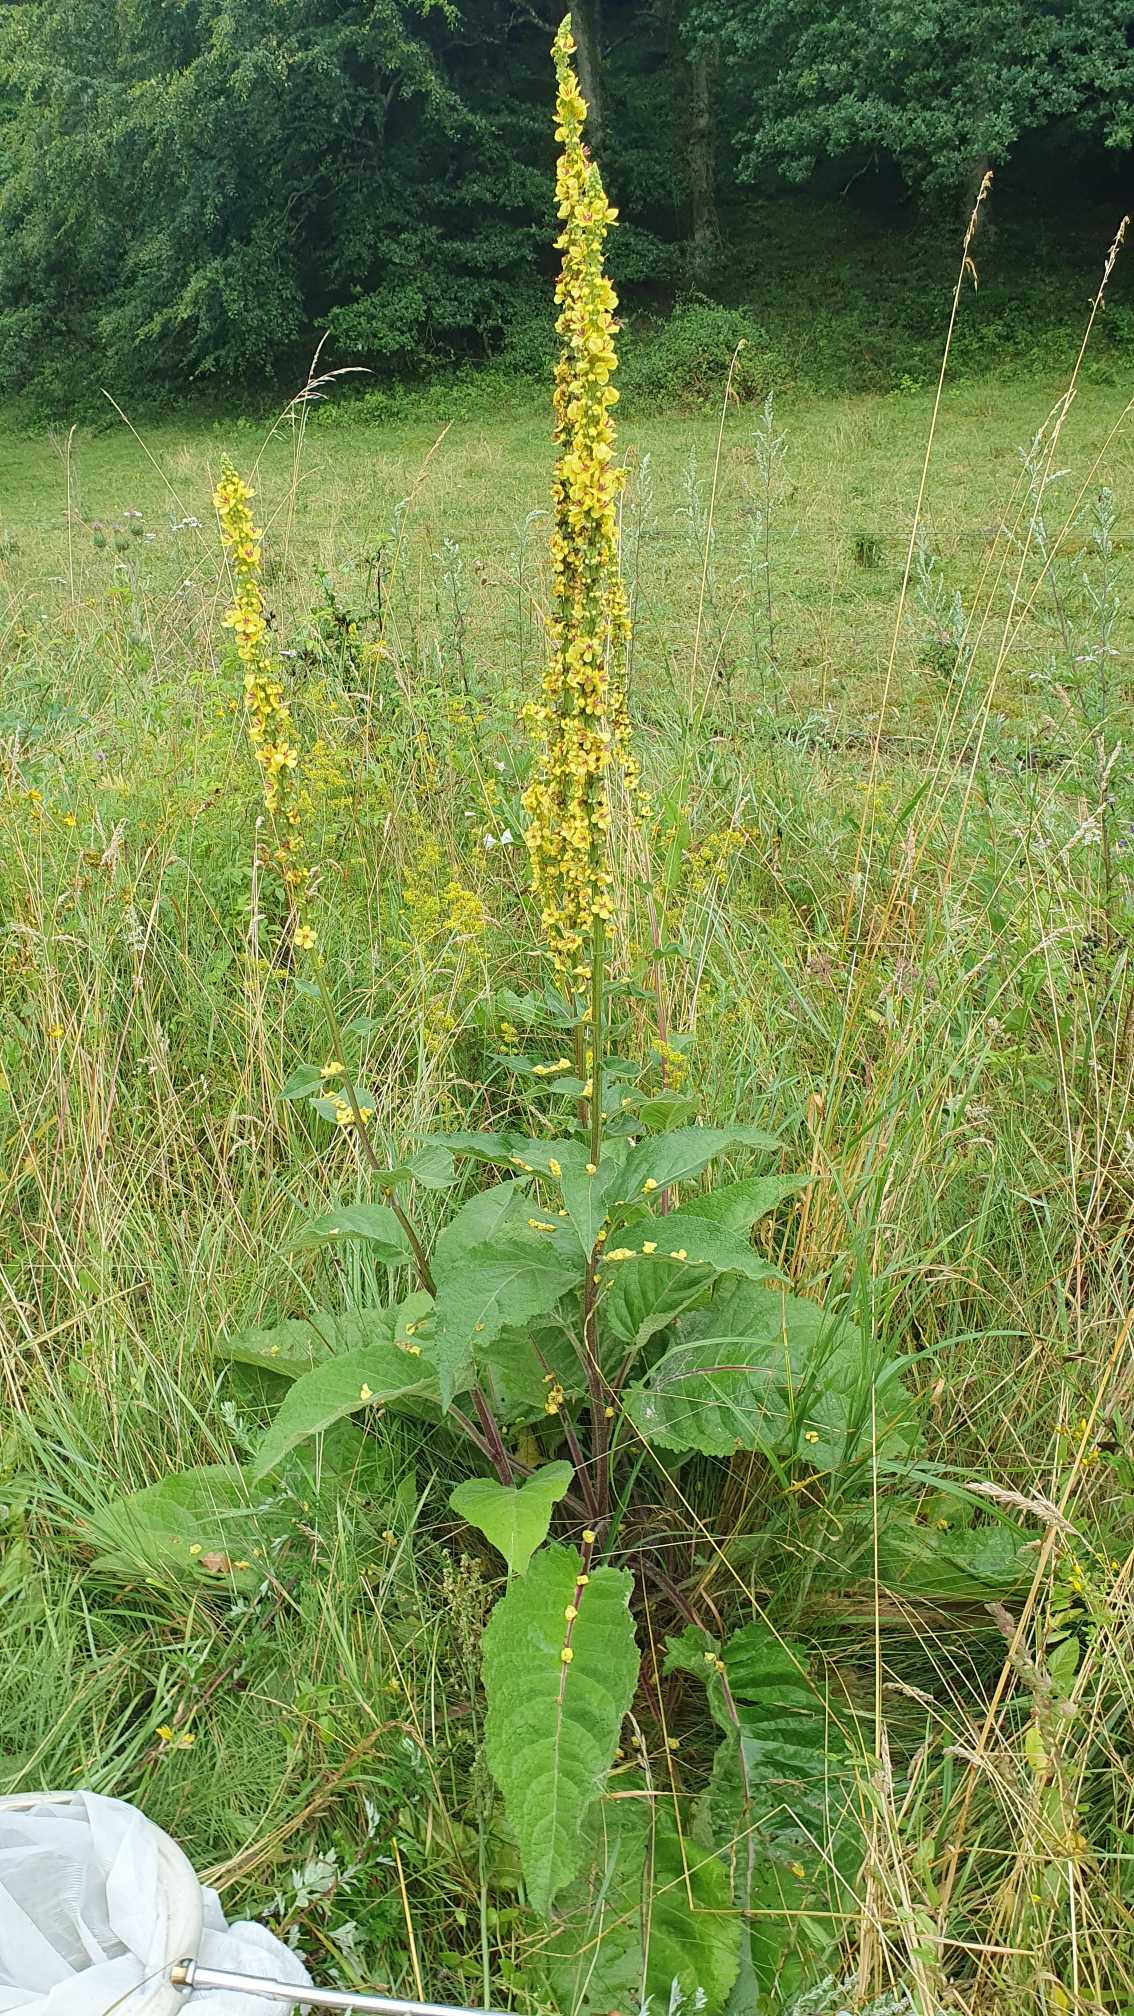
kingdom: Plantae
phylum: Tracheophyta
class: Magnoliopsida
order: Lamiales
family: Scrophulariaceae
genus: Verbascum
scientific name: Verbascum nigrum
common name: Mørk kongelys
